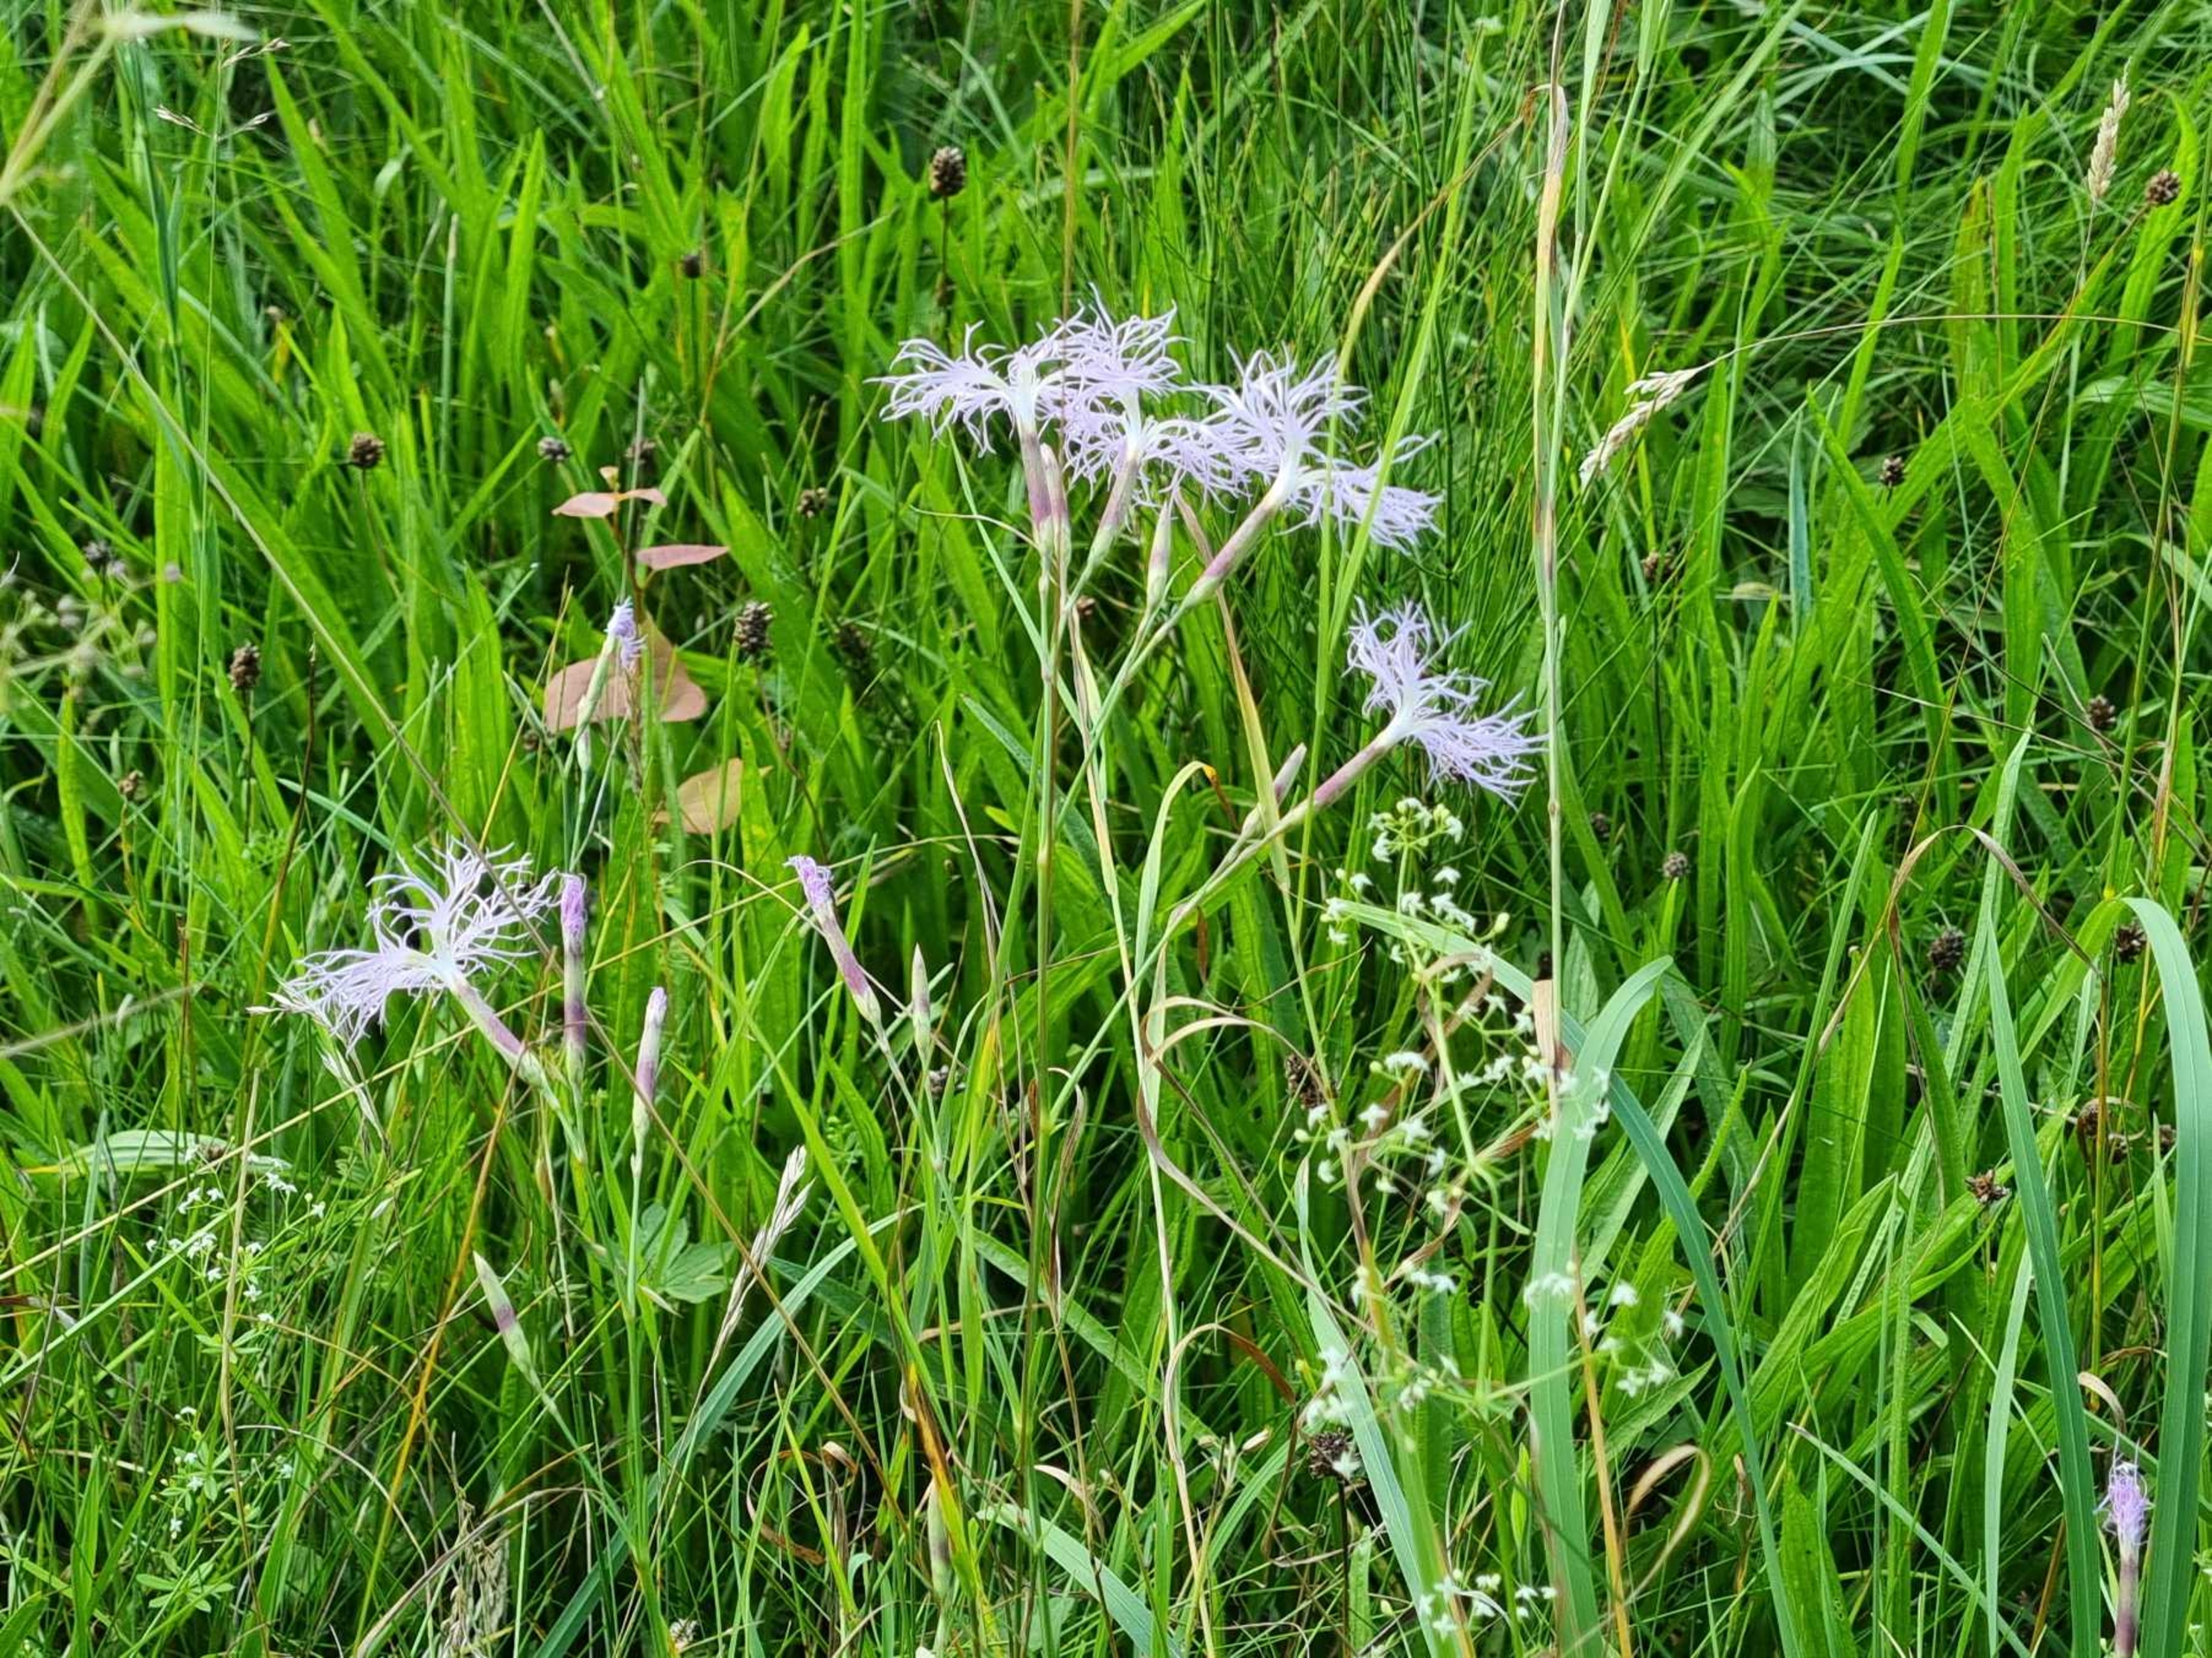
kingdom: Plantae
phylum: Tracheophyta
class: Magnoliopsida
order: Caryophyllales
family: Caryophyllaceae
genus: Dianthus
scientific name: Dianthus superbus
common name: Strand-nellike
